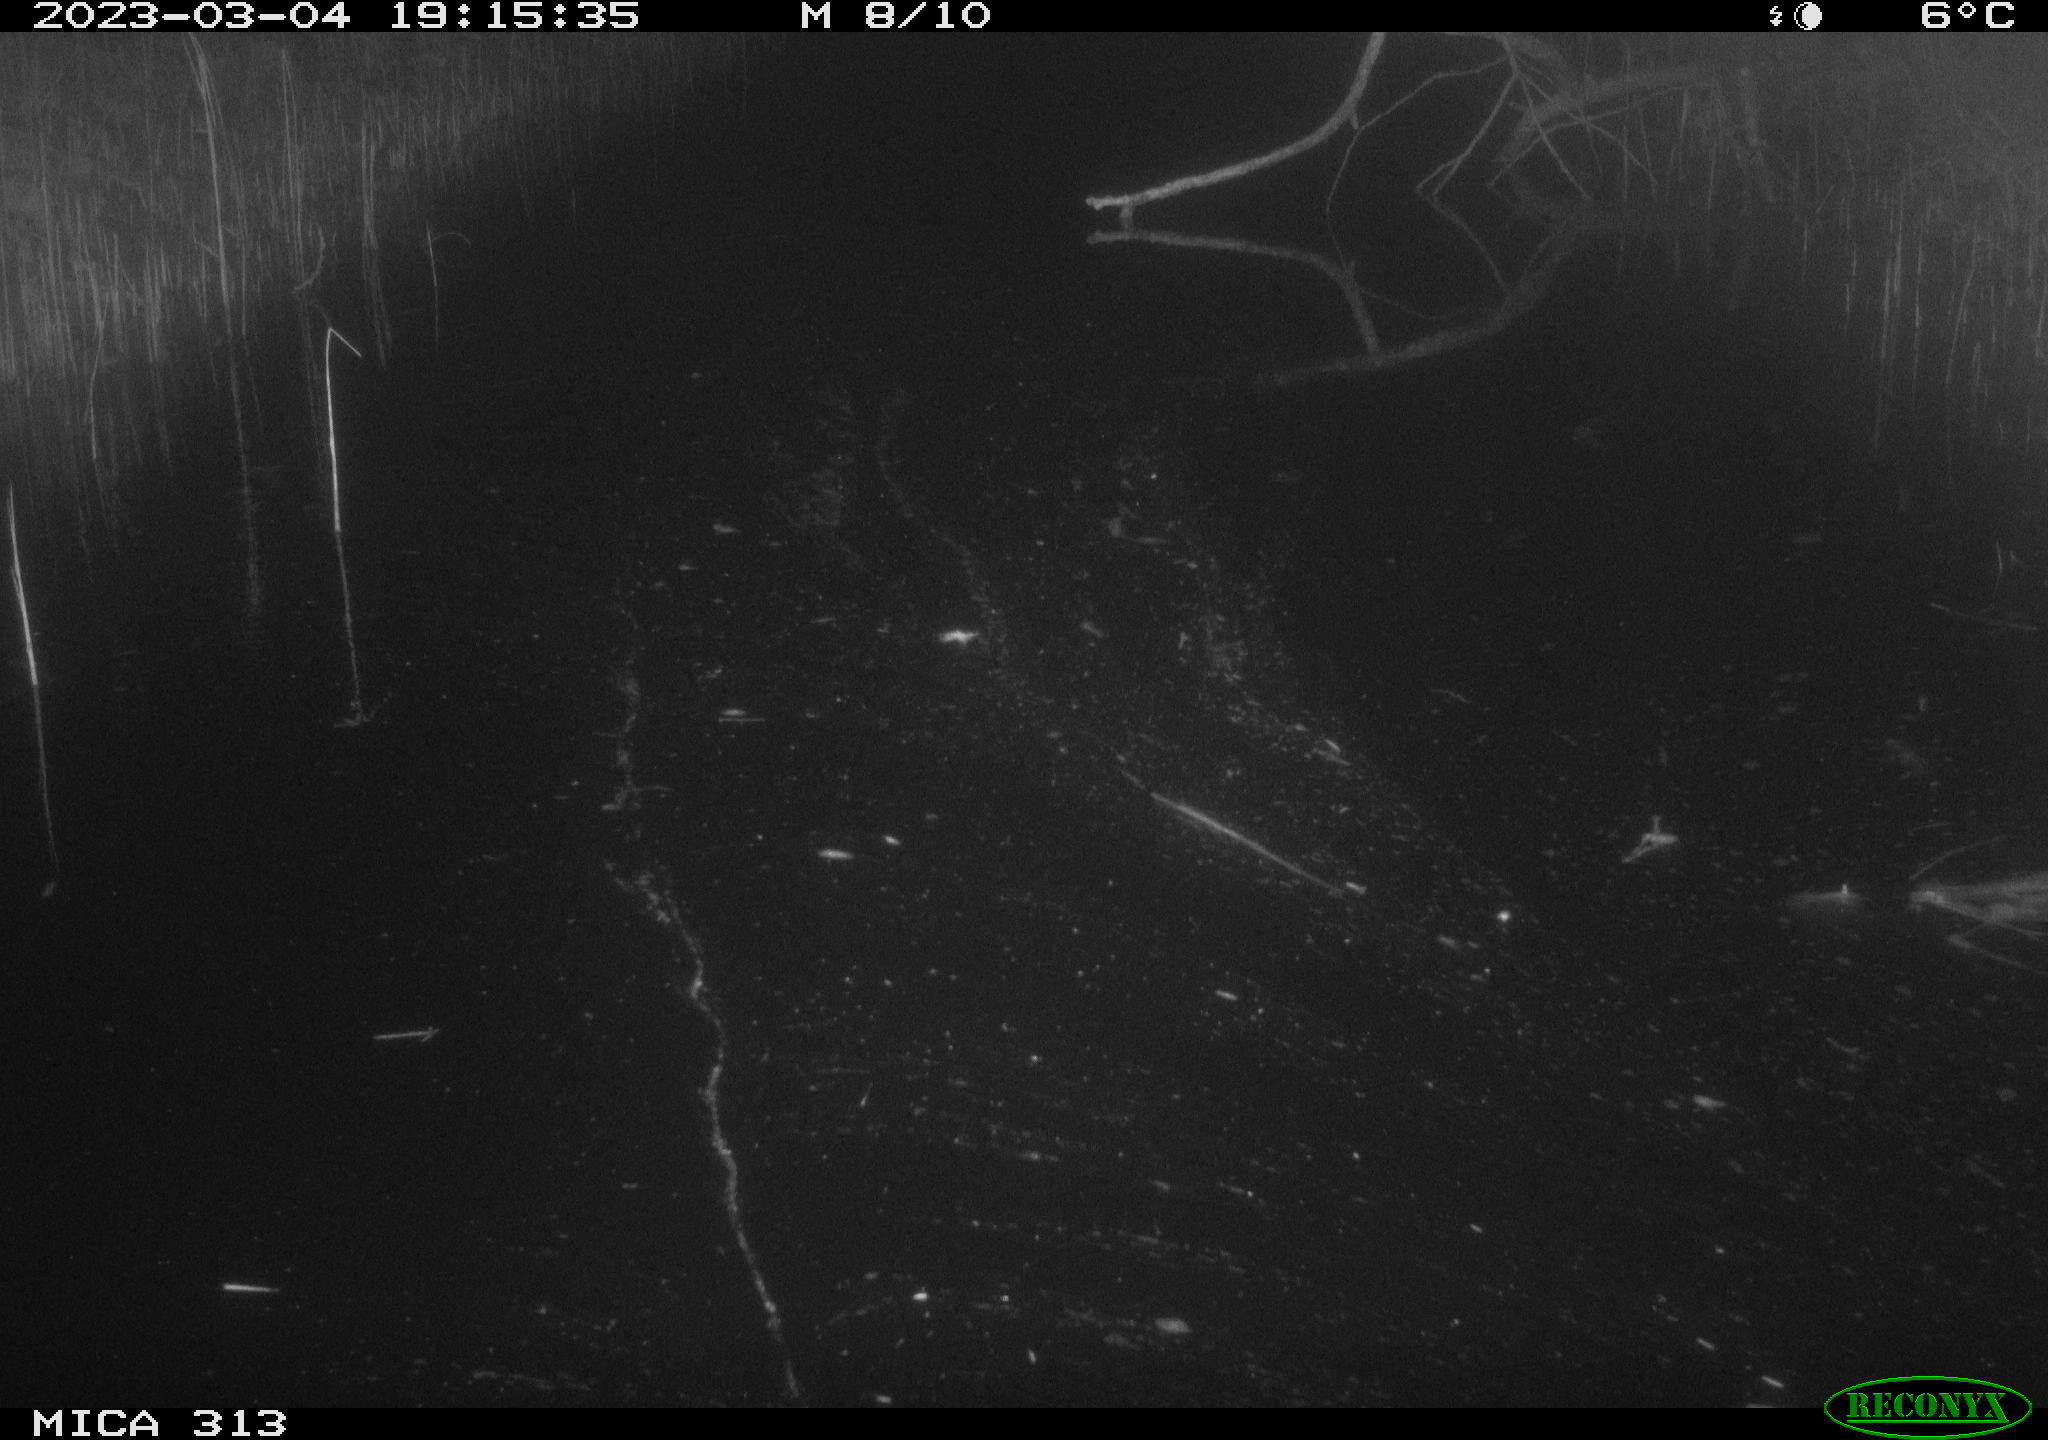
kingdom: Animalia
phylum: Chordata
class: Aves
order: Gruiformes
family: Rallidae
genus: Fulica
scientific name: Fulica atra
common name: Eurasian coot
